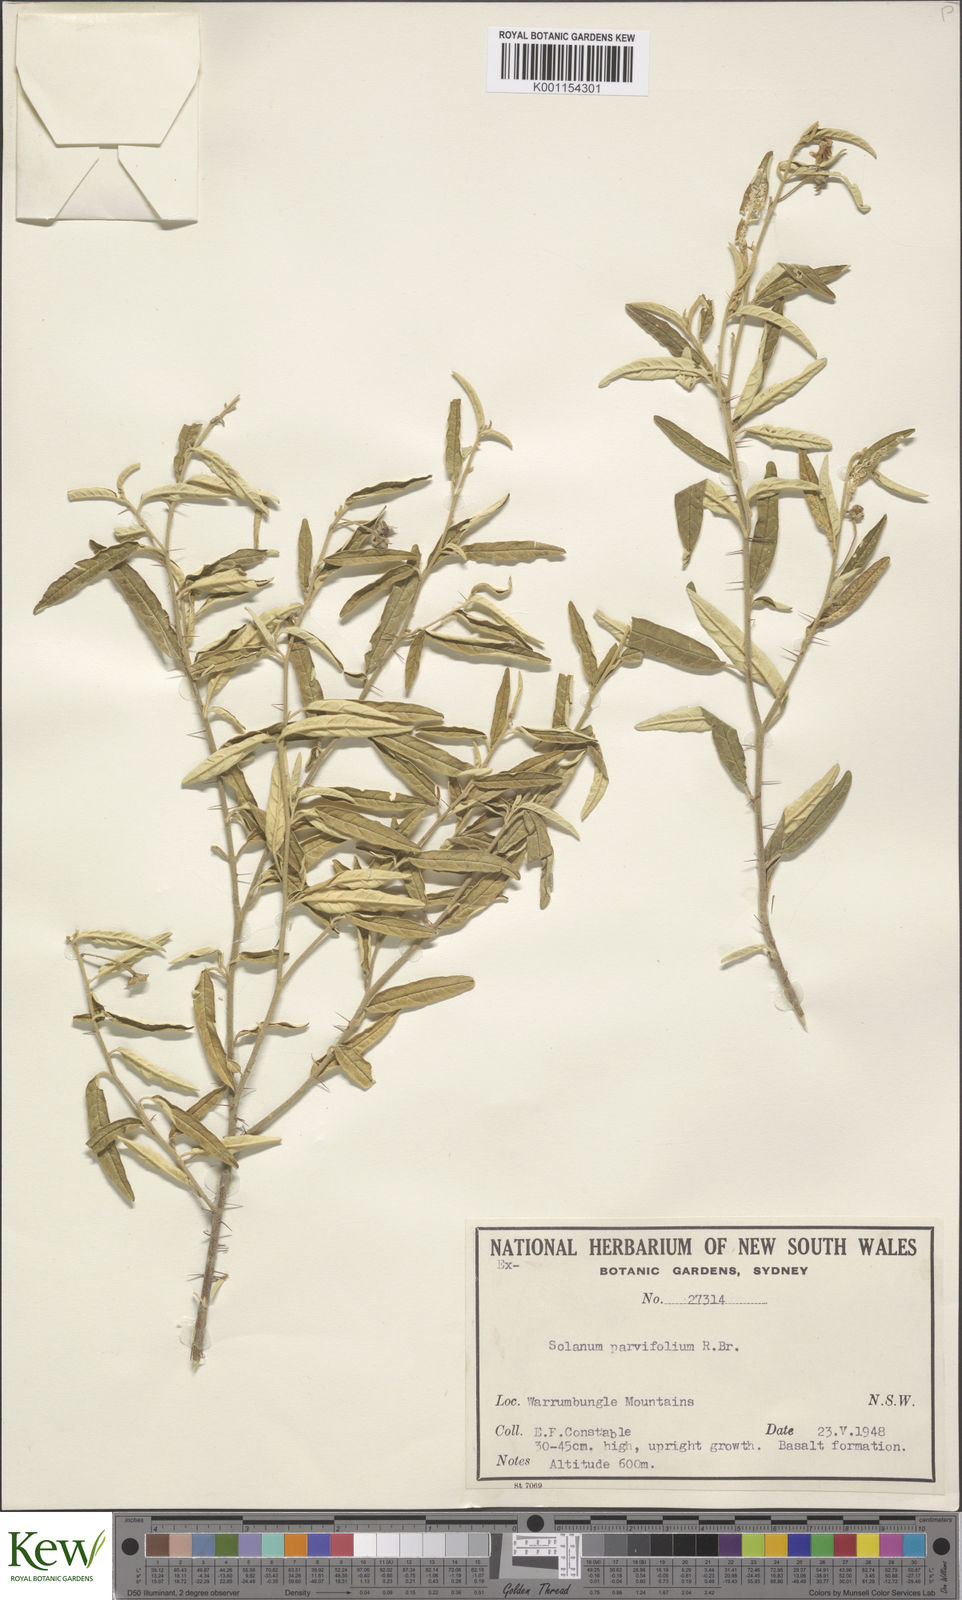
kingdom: Plantae
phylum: Tracheophyta
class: Magnoliopsida
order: Solanales
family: Solanaceae
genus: Solanum
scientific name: Solanum parvifolium
